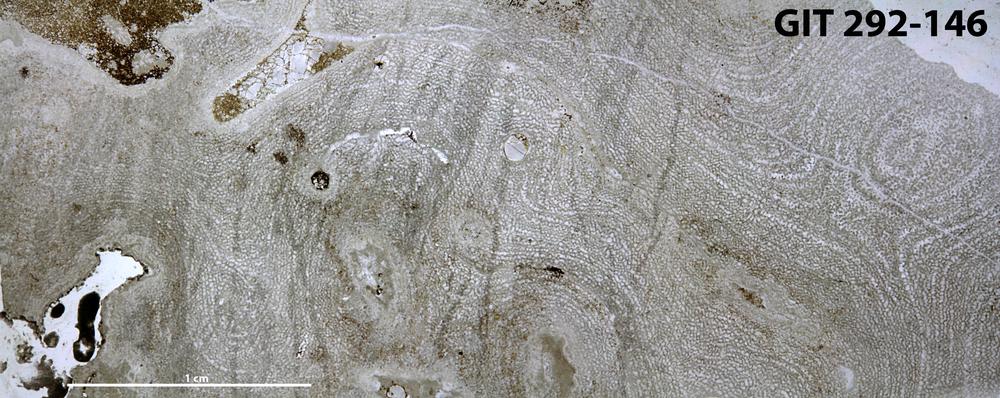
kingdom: Animalia
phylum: Porifera
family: Clathrodictyidae
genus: Clathrodictyon
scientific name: Clathrodictyon boreale
